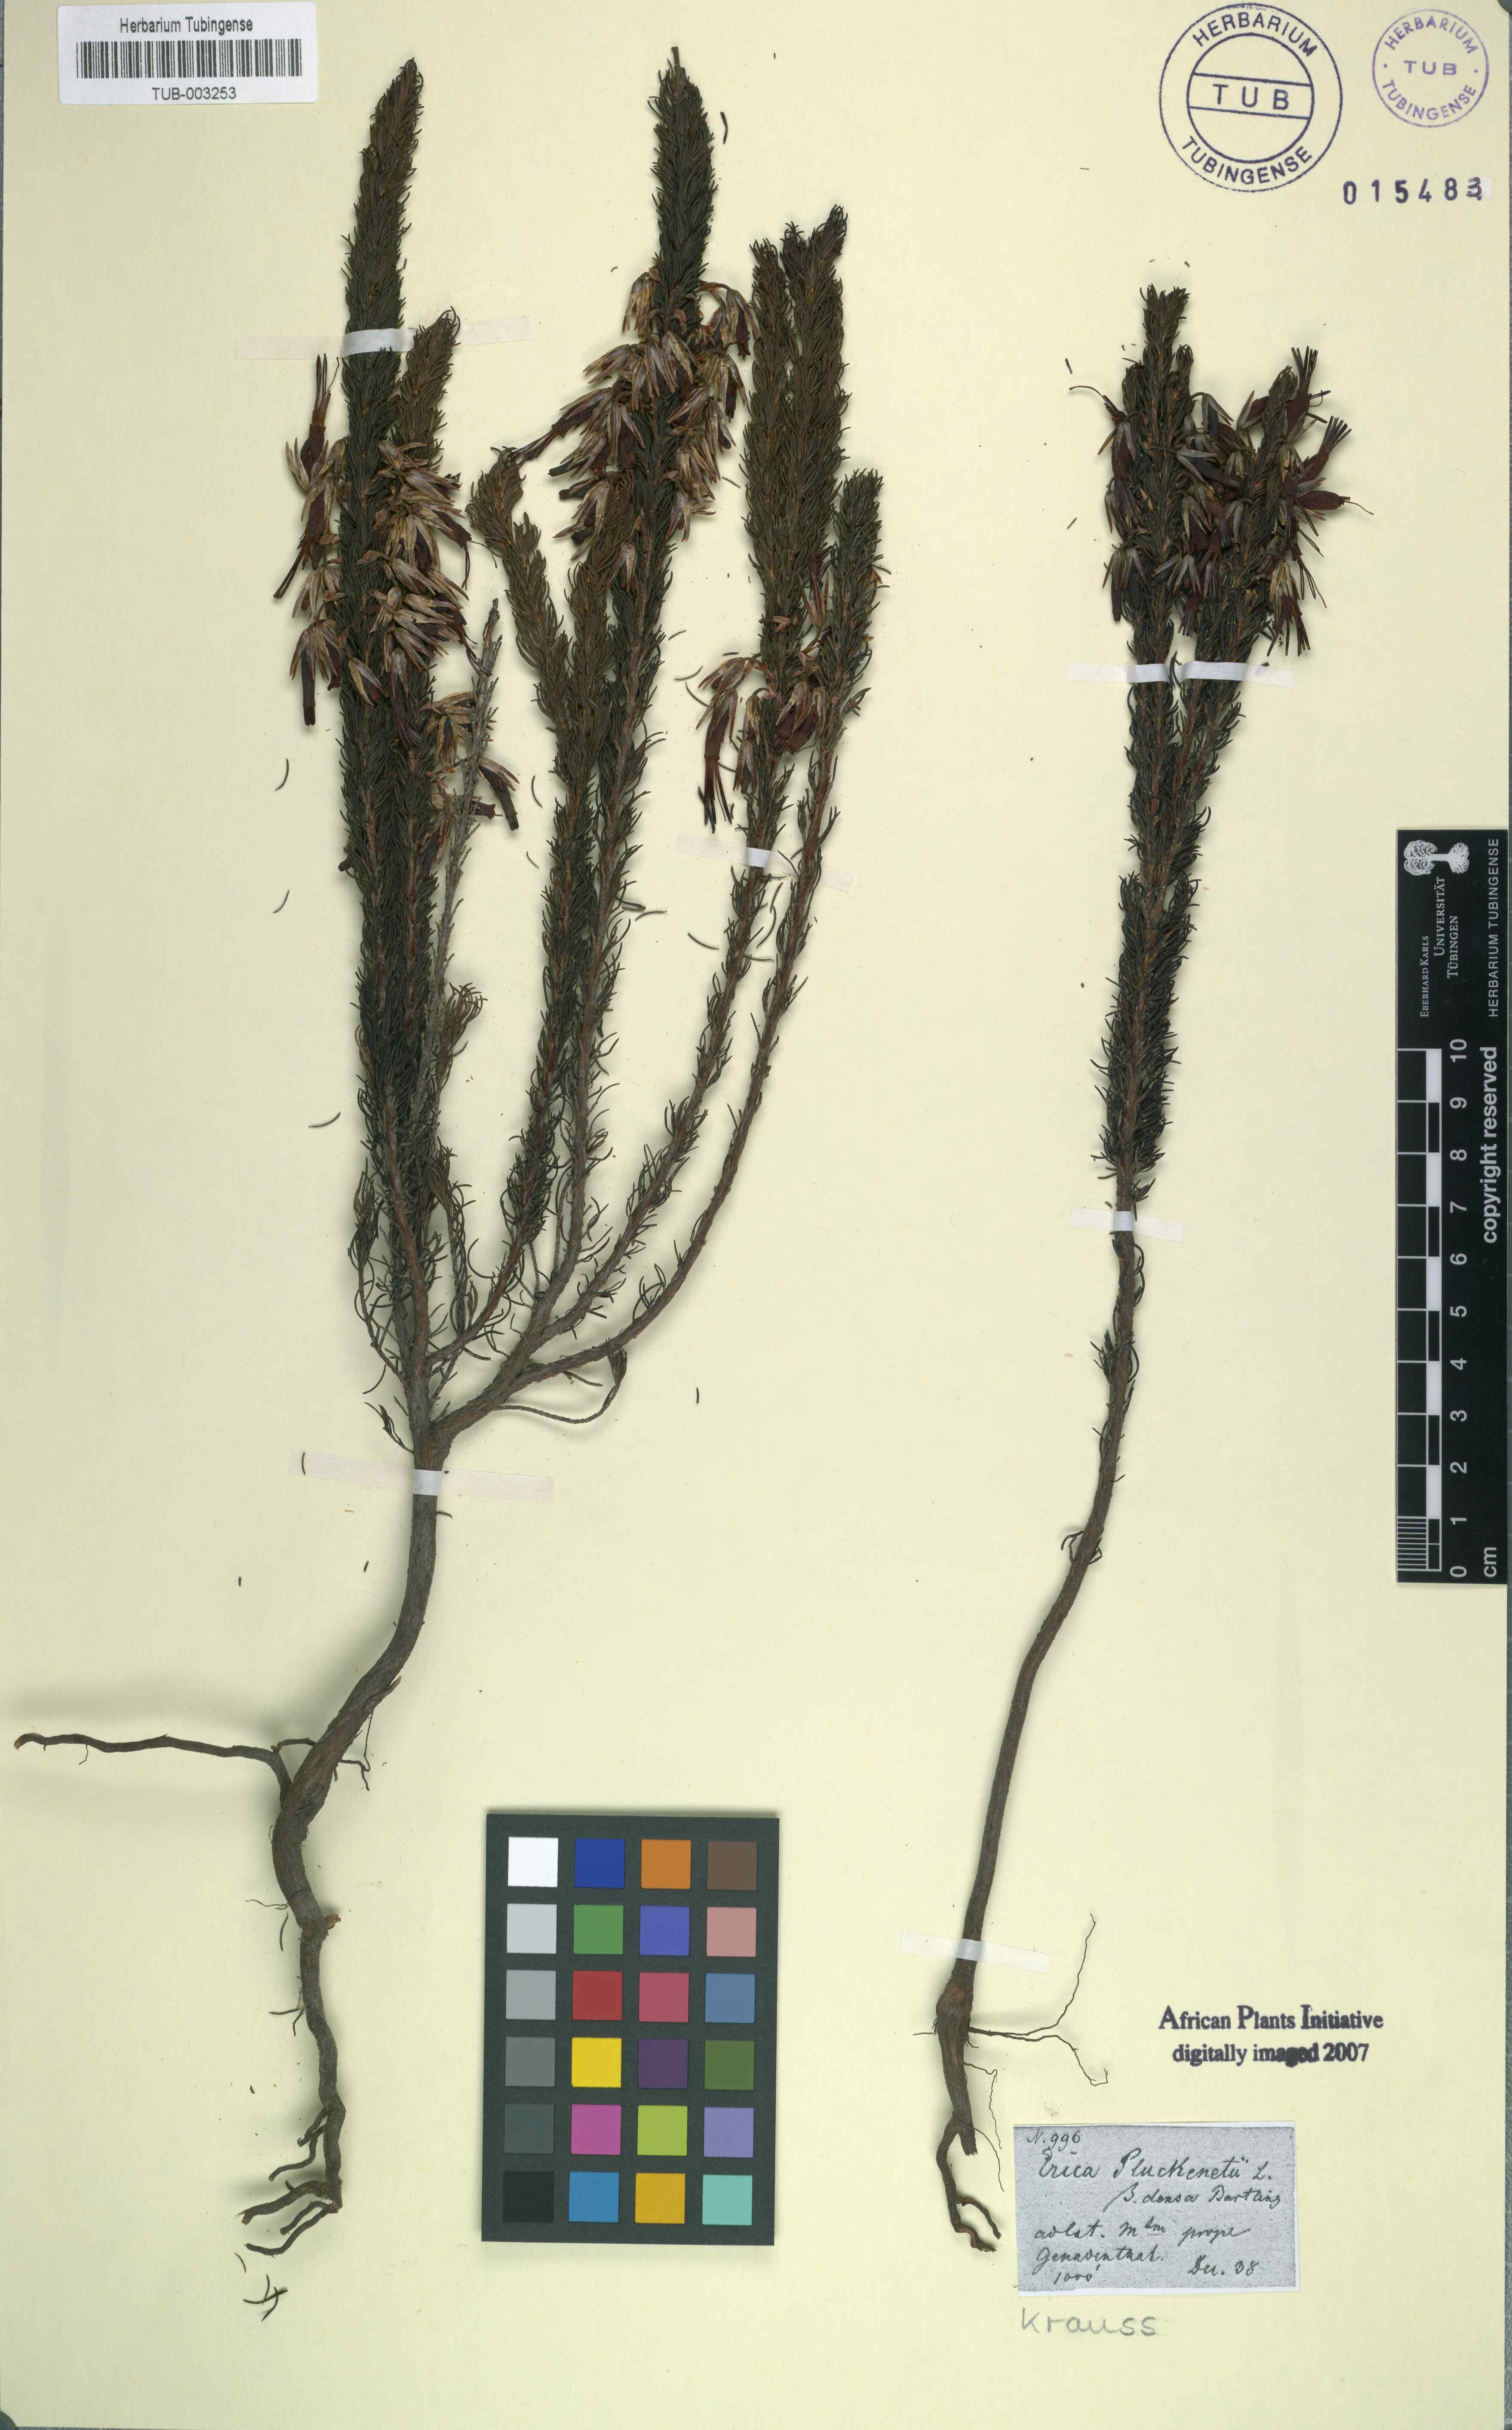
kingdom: Plantae
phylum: Tracheophyta
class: Magnoliopsida
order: Ericales
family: Ericaceae
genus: Erica
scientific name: Erica coccinea
